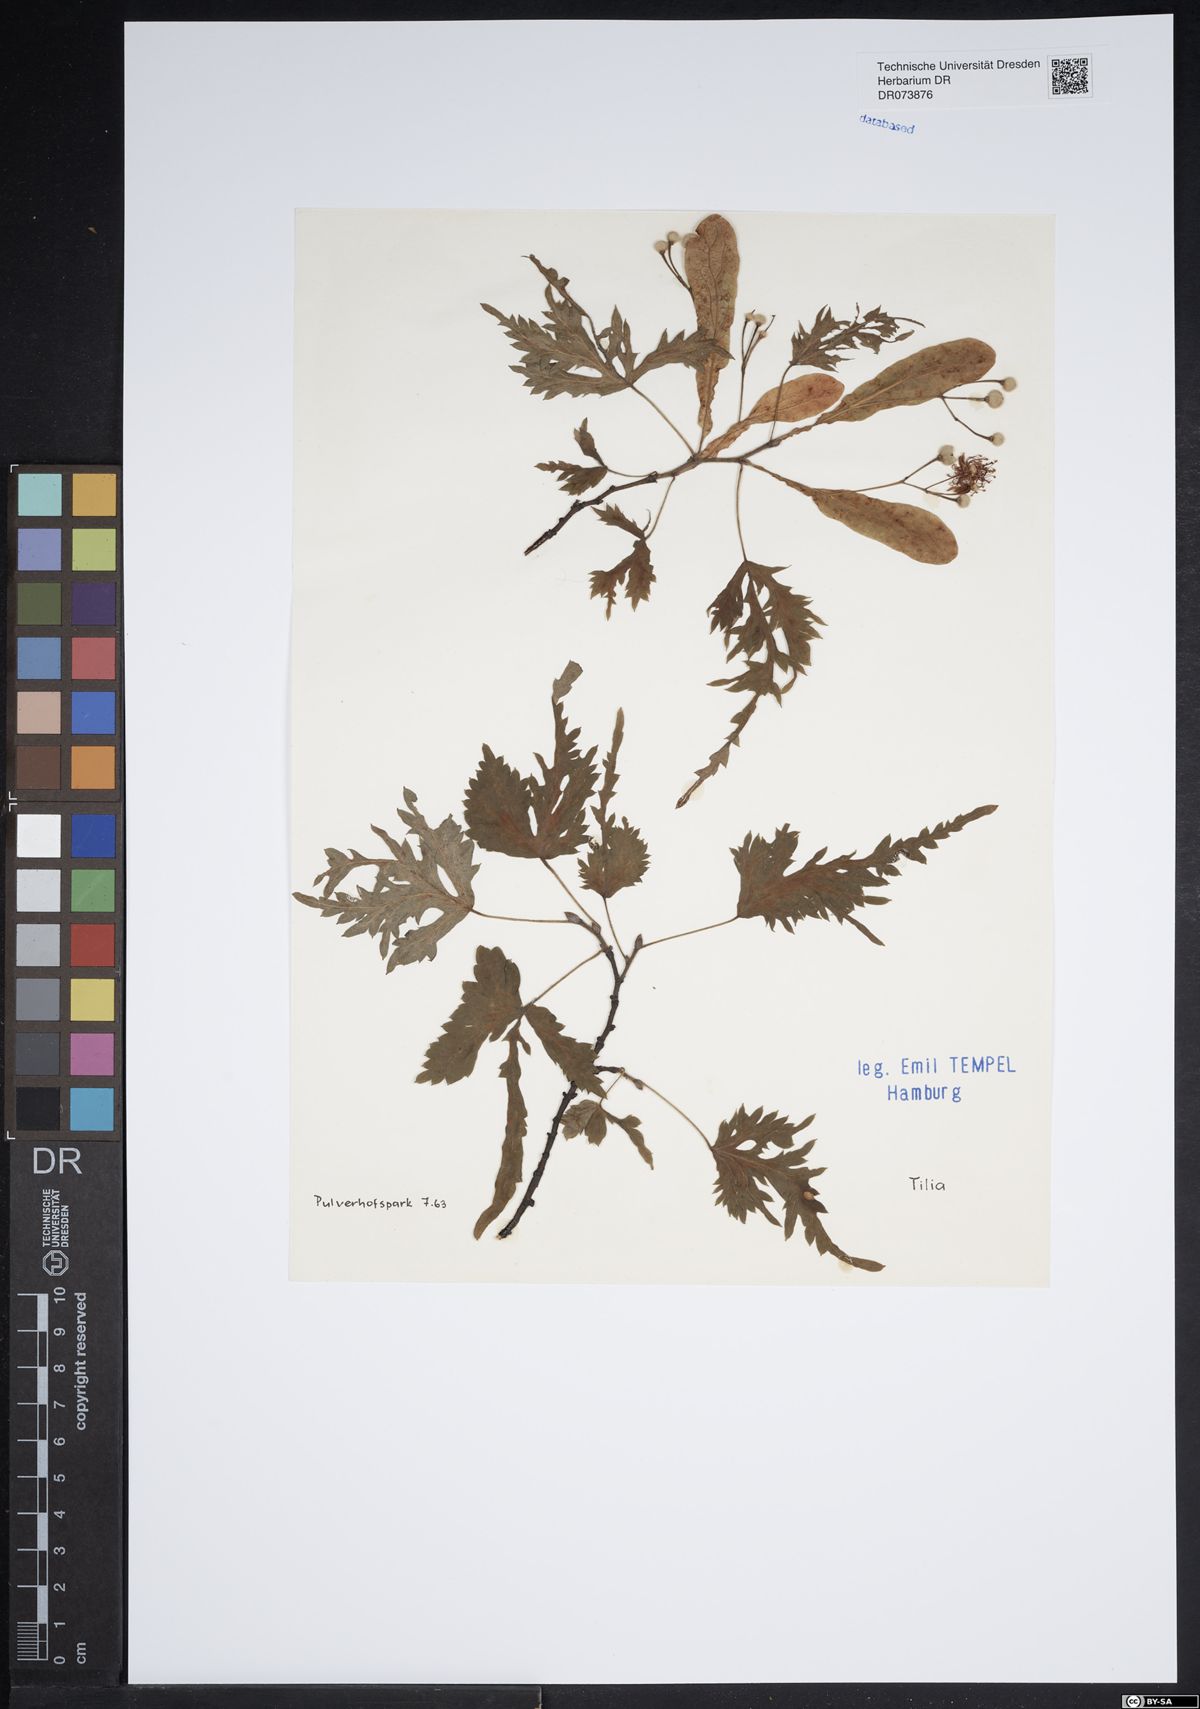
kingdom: Plantae
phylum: Tracheophyta
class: Magnoliopsida
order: Malvales
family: Malvaceae
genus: Tilia
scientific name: Tilia
